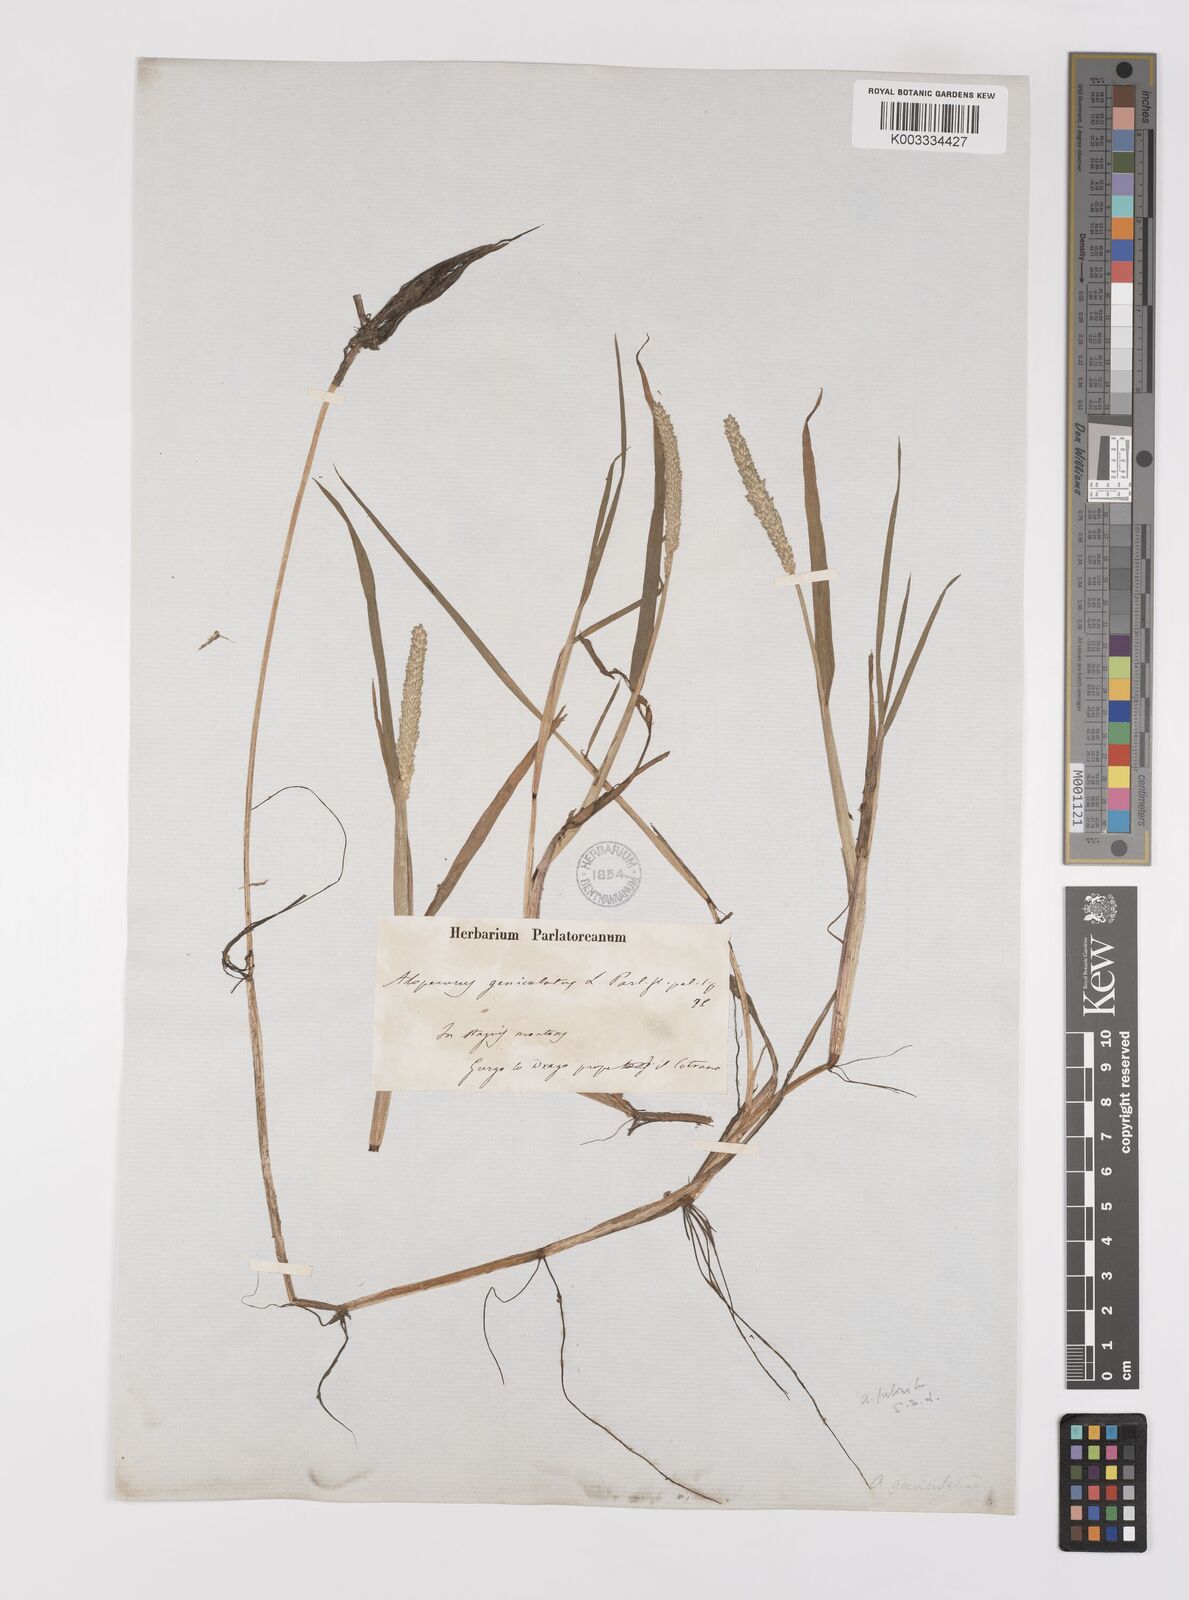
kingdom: Plantae
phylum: Tracheophyta
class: Liliopsida
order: Poales
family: Poaceae
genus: Alopecurus
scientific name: Alopecurus aequalis
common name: Orange foxtail
